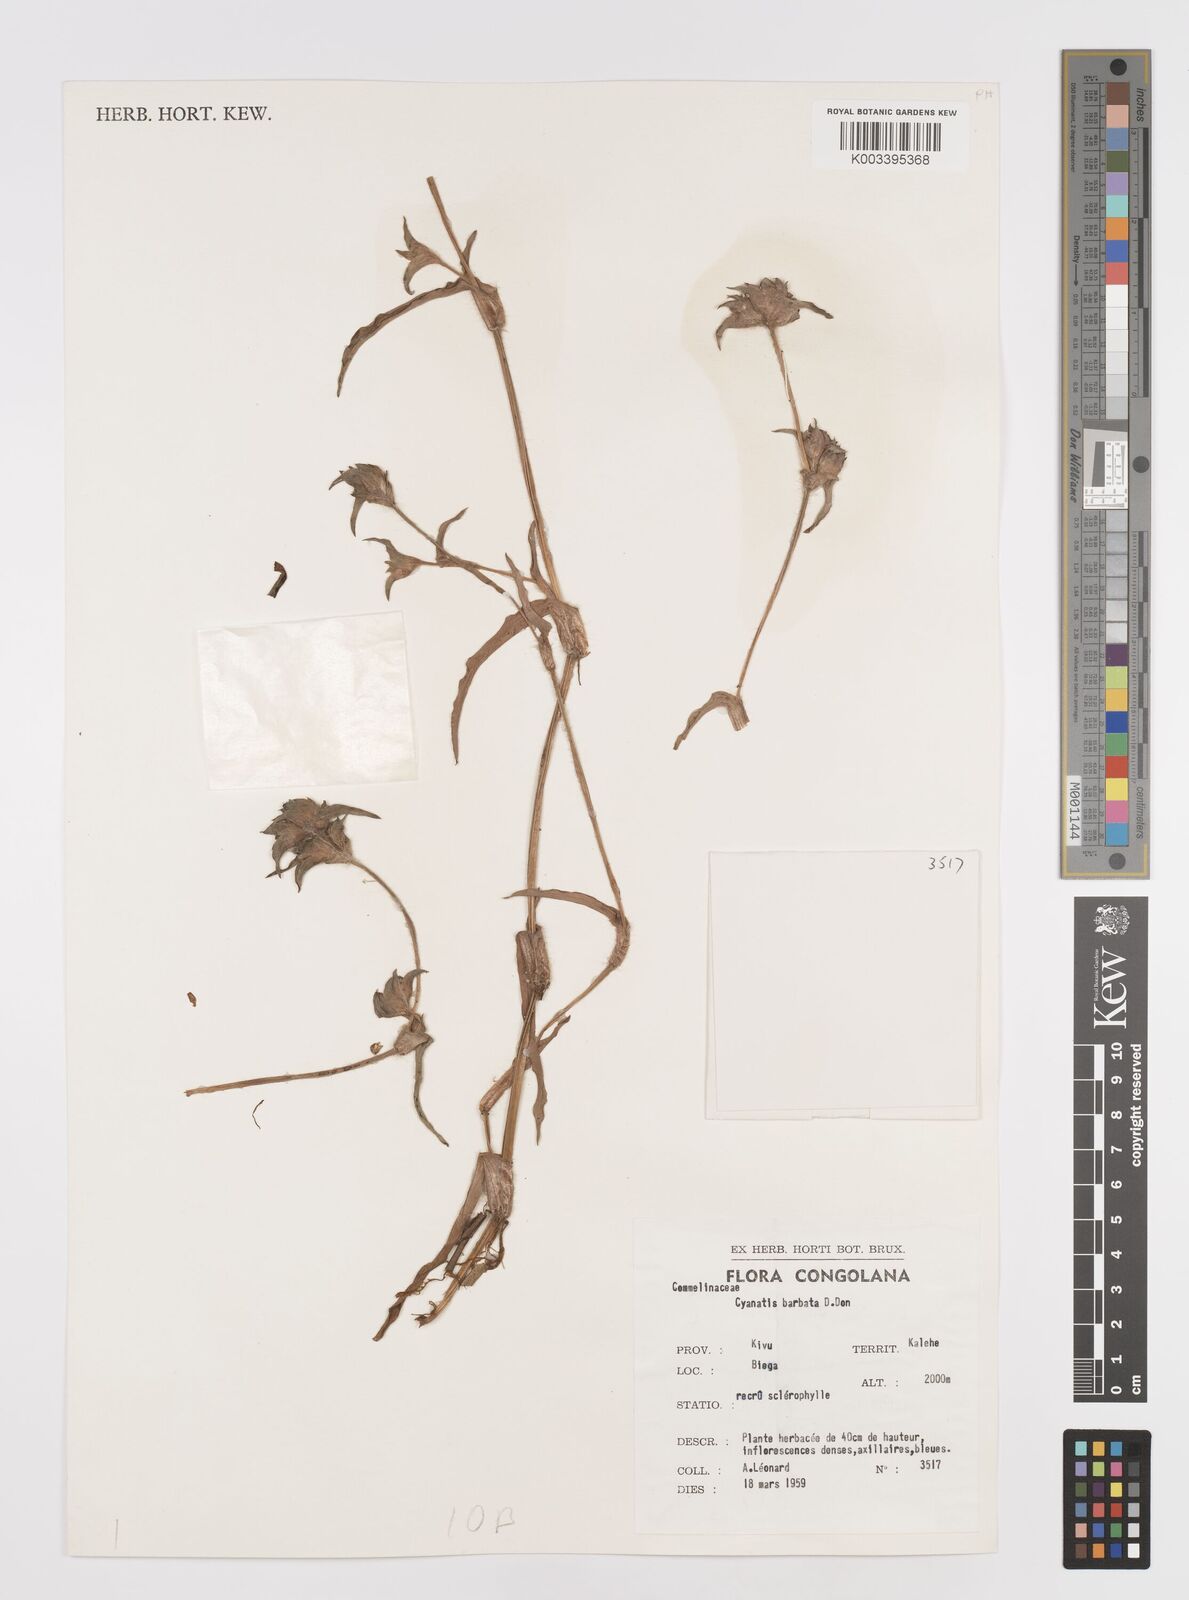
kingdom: Plantae
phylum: Tracheophyta
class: Liliopsida
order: Commelinales
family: Commelinaceae
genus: Cyanotis
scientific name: Cyanotis vaga
